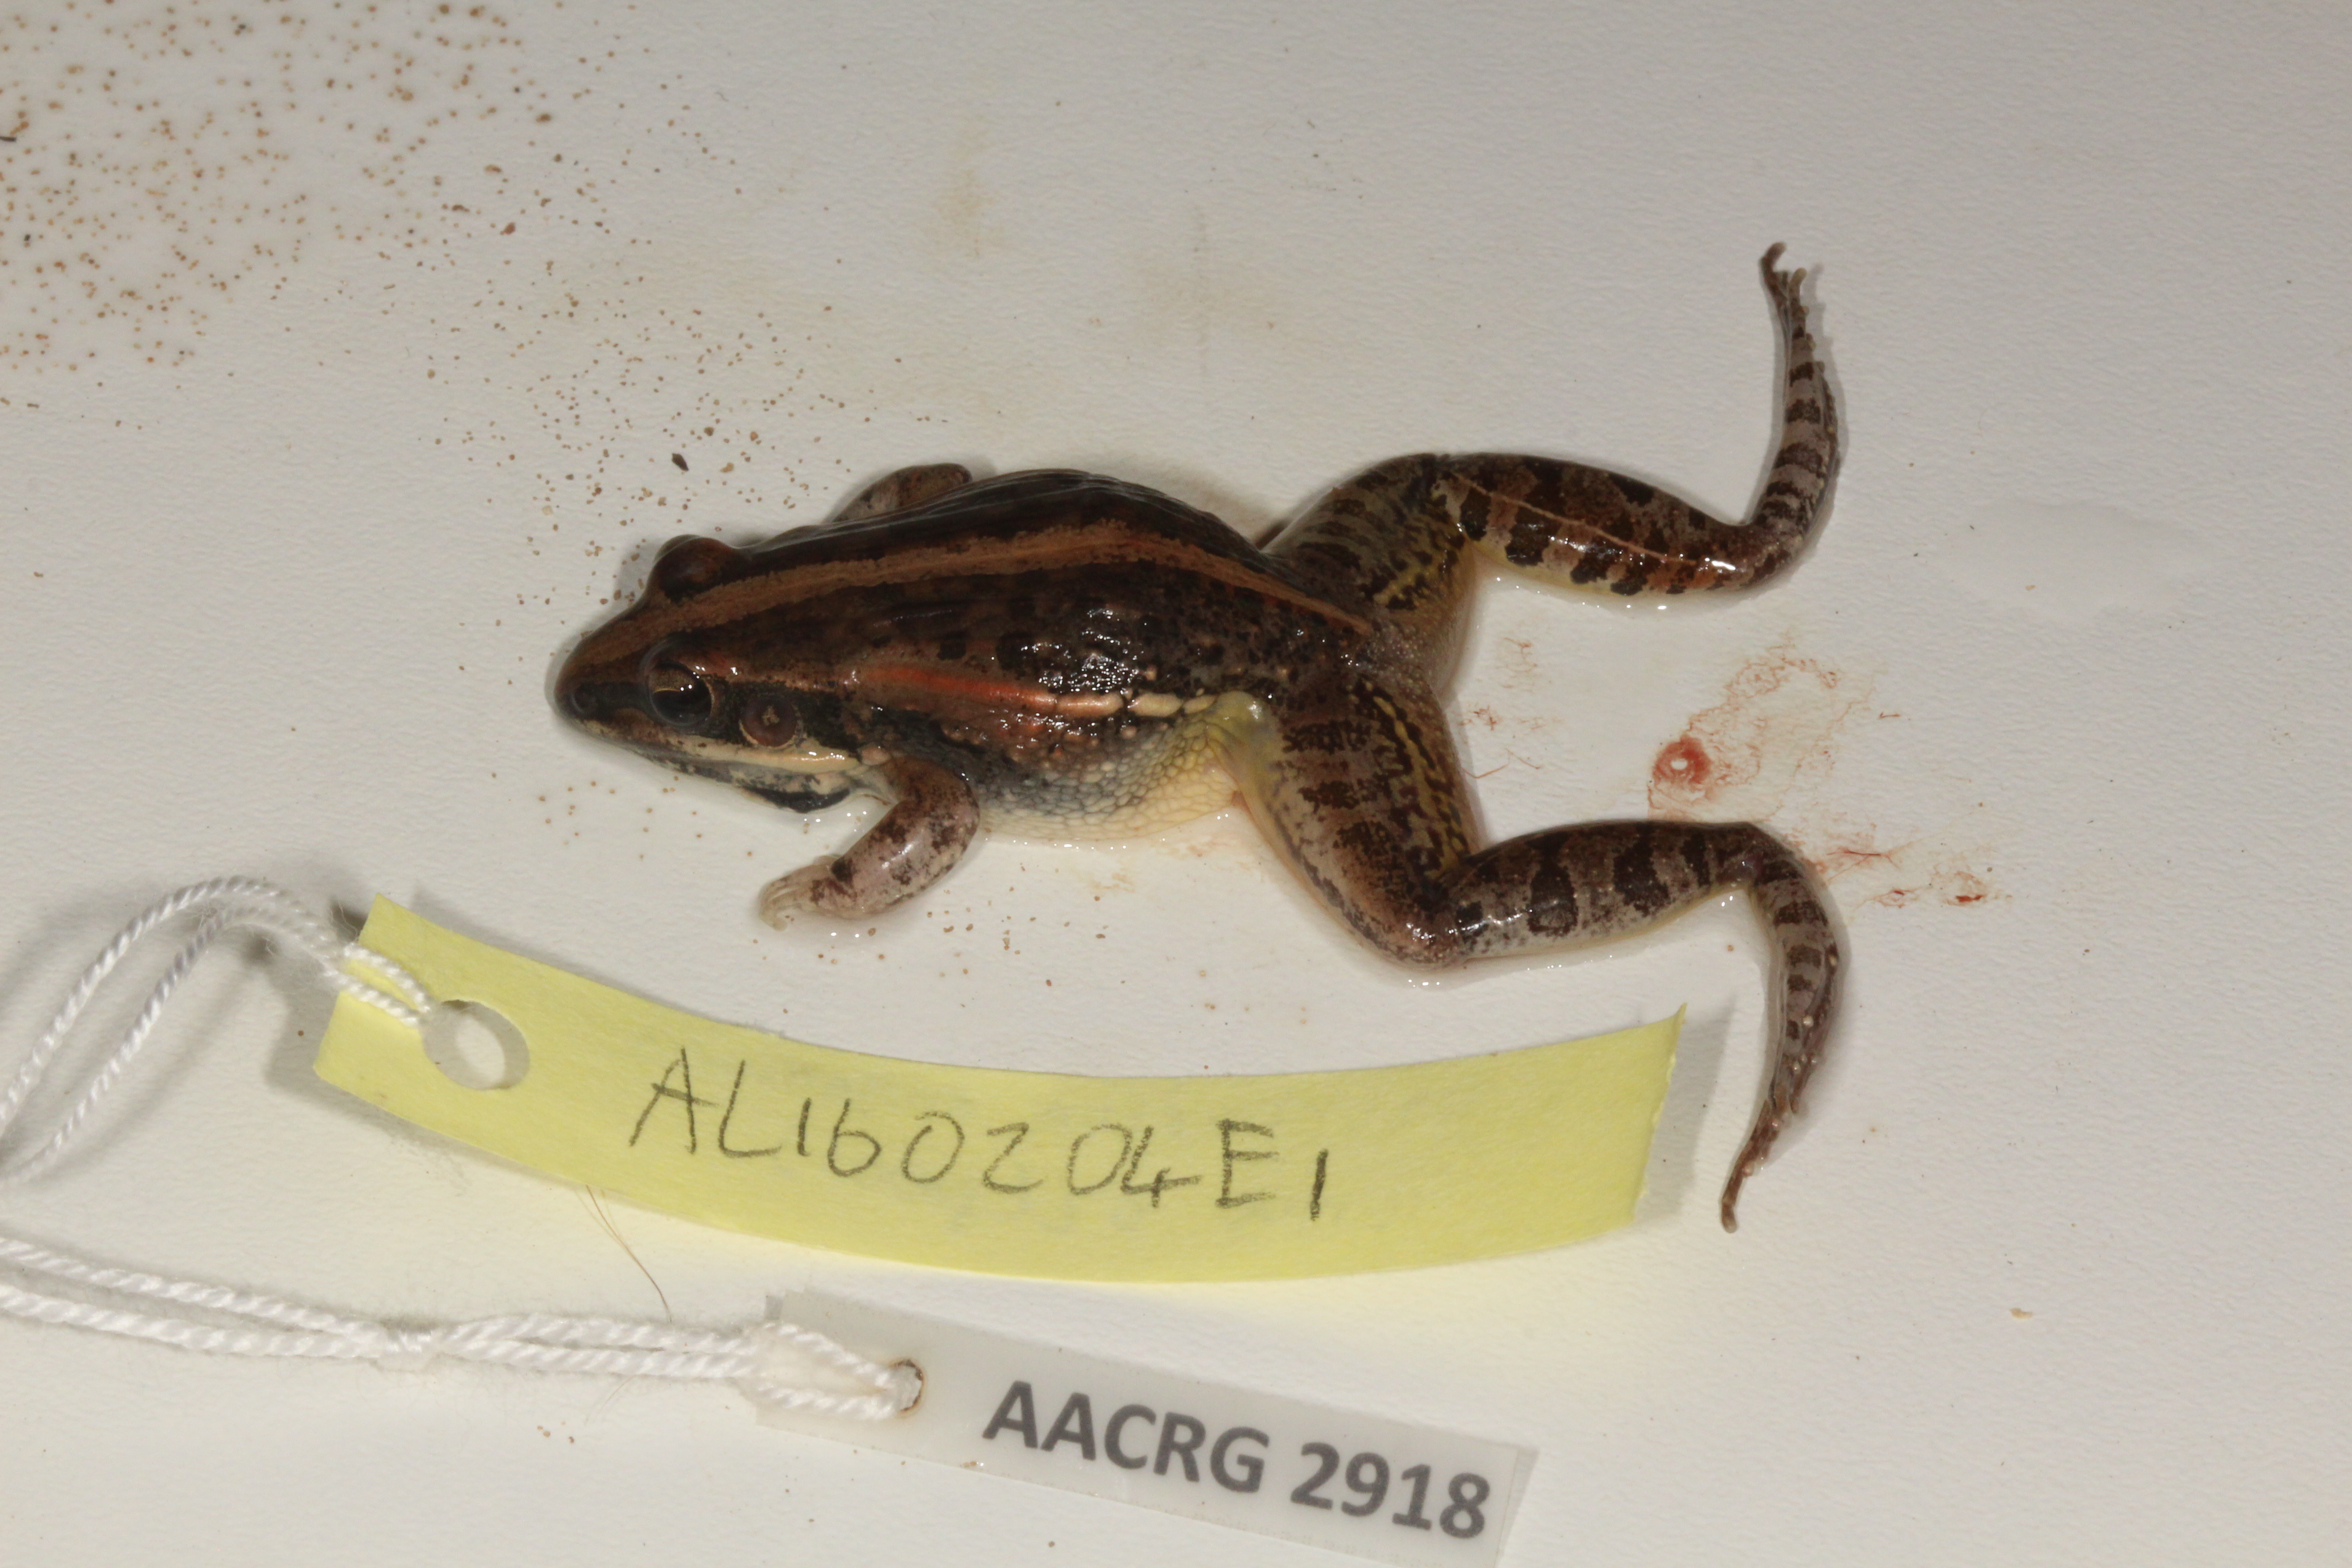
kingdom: Animalia
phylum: Chordata
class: Amphibia
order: Anura
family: Ptychadenidae
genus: Ptychadena
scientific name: Ptychadena mossambica
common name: Mozambique ridged frog
